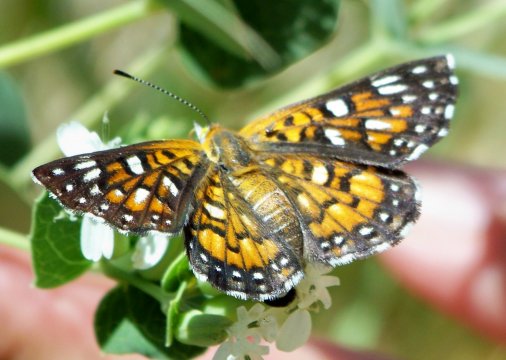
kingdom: Animalia
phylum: Arthropoda
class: Insecta
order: Lepidoptera
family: Riodinidae
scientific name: Riodinidae
